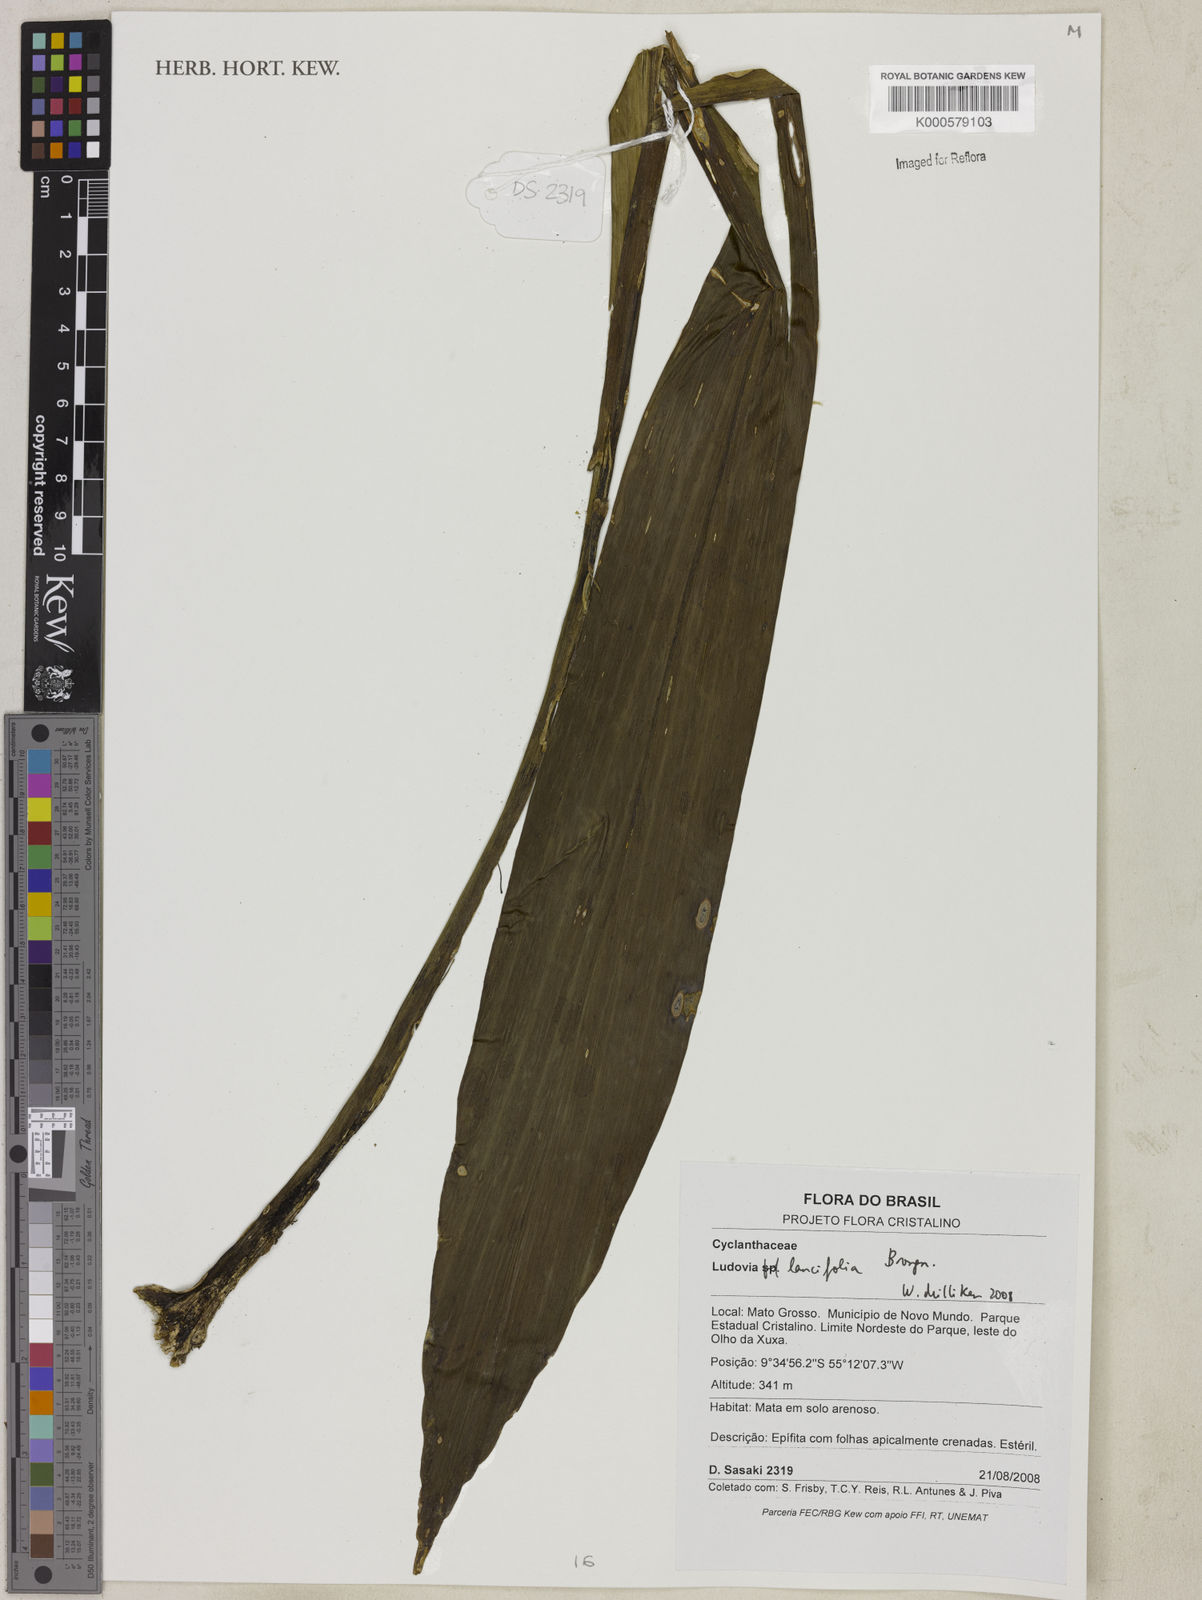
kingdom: Plantae
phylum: Tracheophyta
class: Liliopsida
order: Pandanales
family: Cyclanthaceae
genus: Ludovia
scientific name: Ludovia lancifolia
